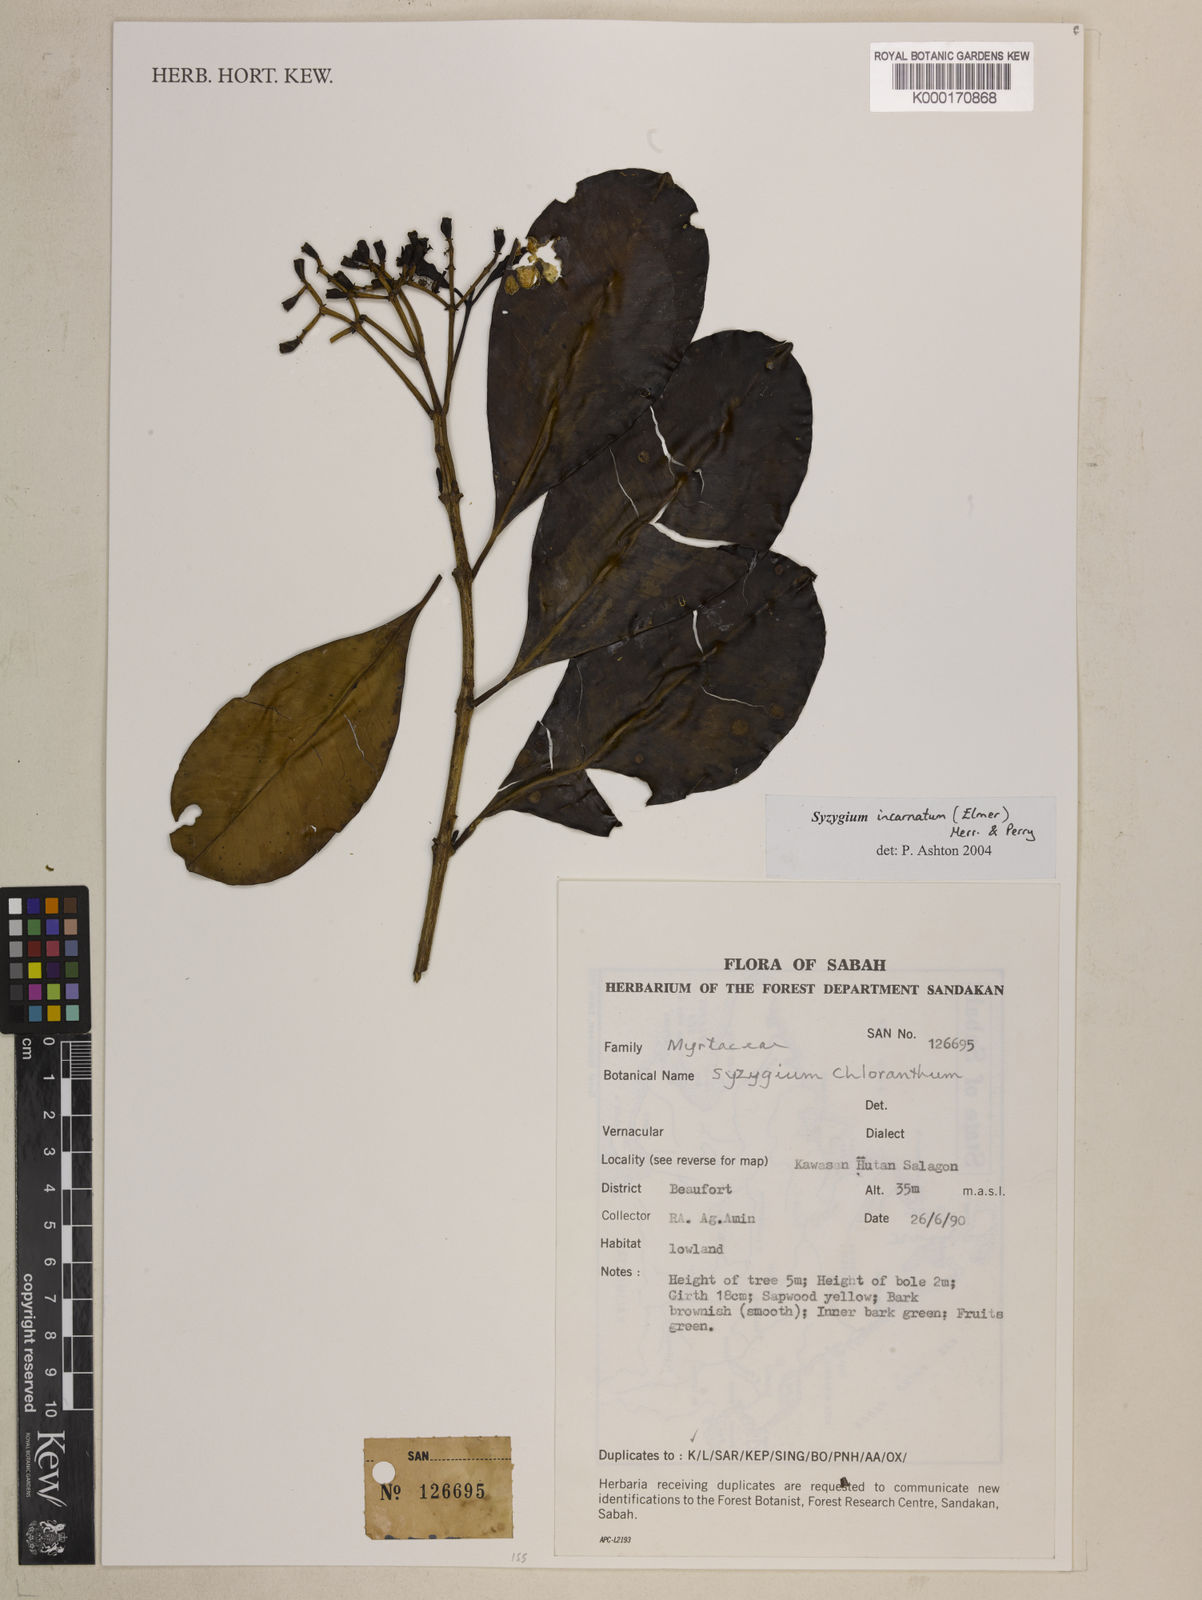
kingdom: Plantae
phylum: Tracheophyta
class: Magnoliopsida
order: Myrtales
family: Myrtaceae
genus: Syzygium
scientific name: Syzygium incarnatum
